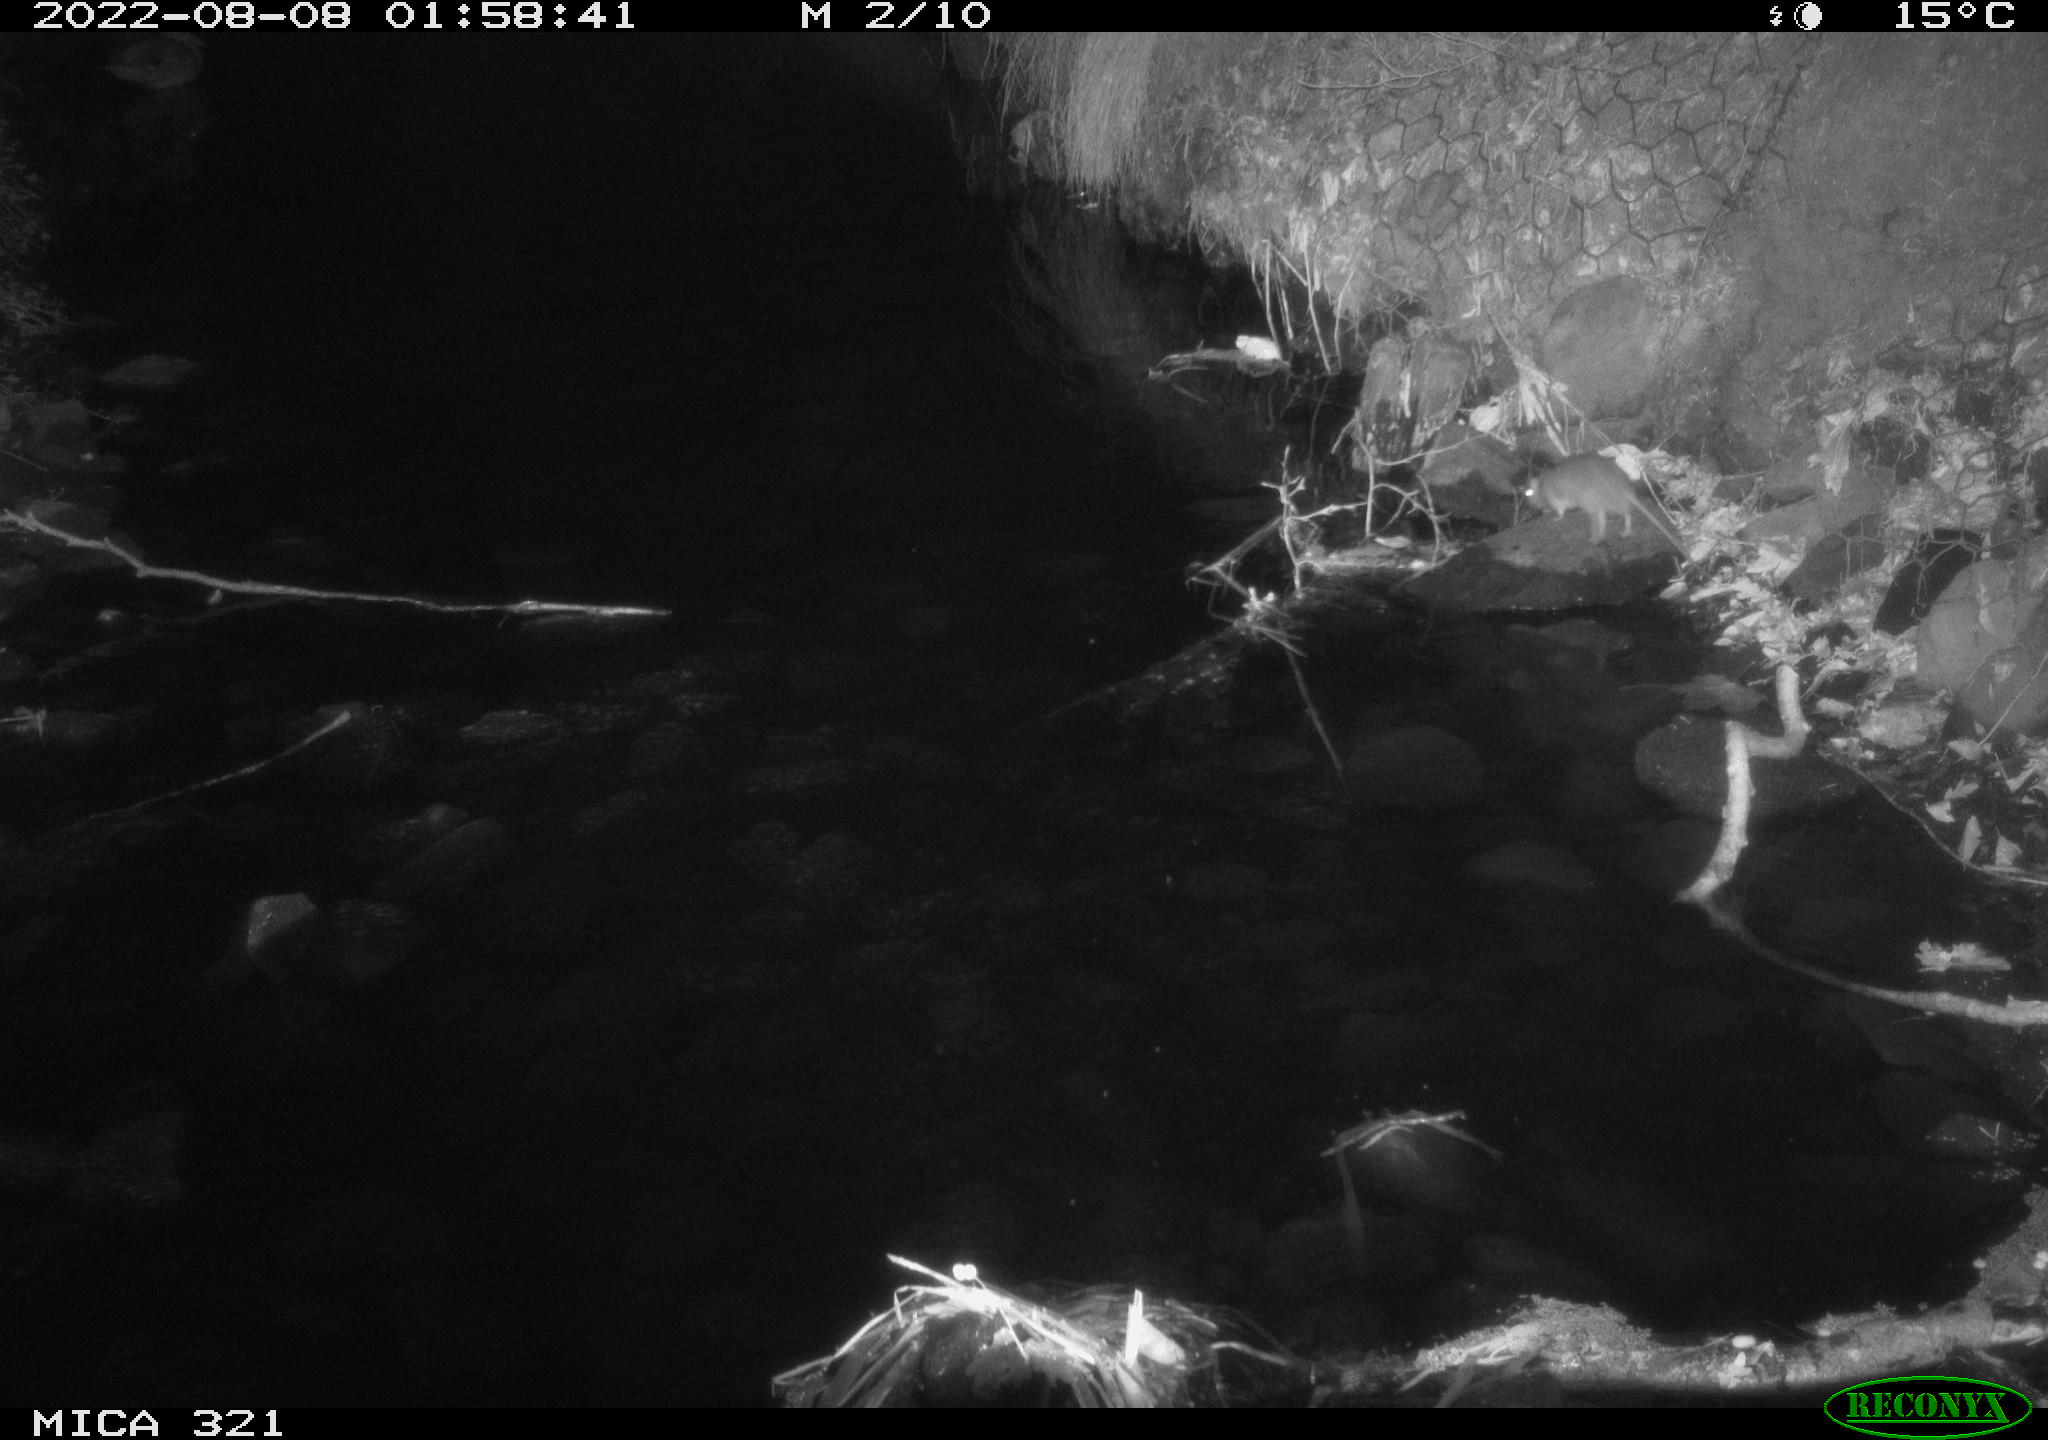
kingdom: Animalia
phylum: Chordata
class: Mammalia
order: Rodentia
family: Muridae
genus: Rattus
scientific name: Rattus norvegicus
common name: Brown rat
